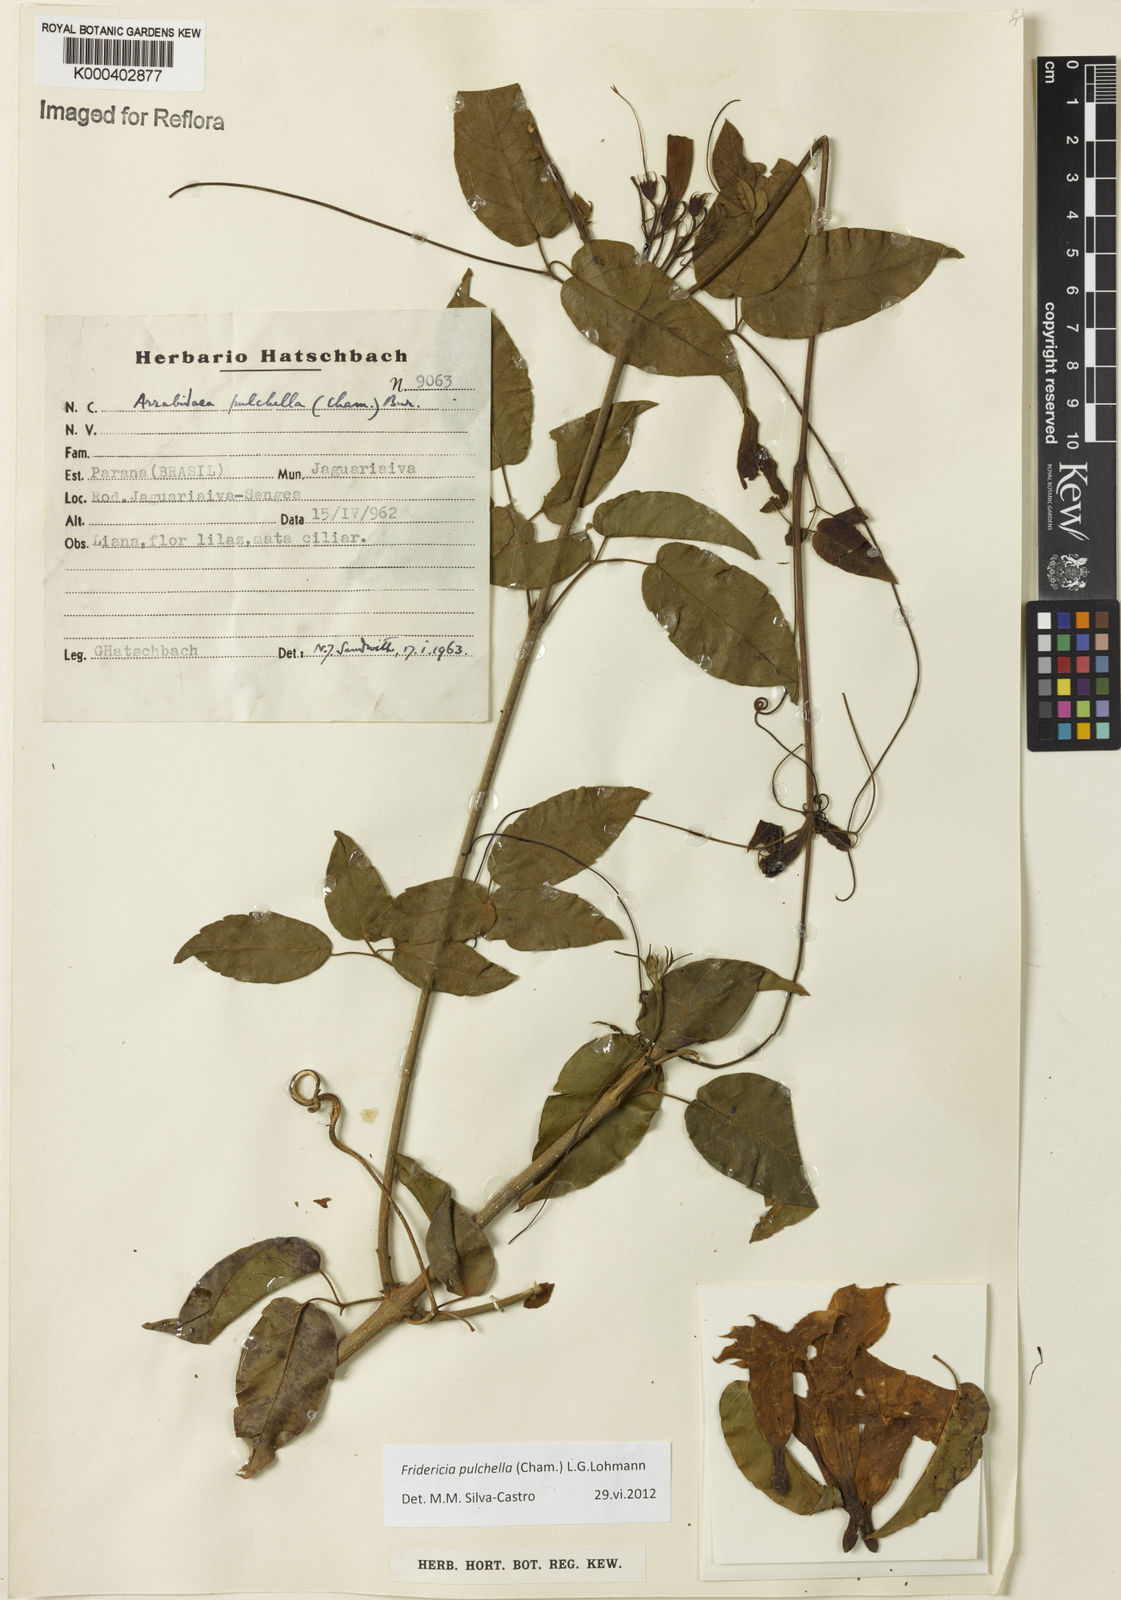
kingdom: Plantae
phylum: Tracheophyta
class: Magnoliopsida
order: Lamiales
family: Bignoniaceae
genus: Fridericia
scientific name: Fridericia
